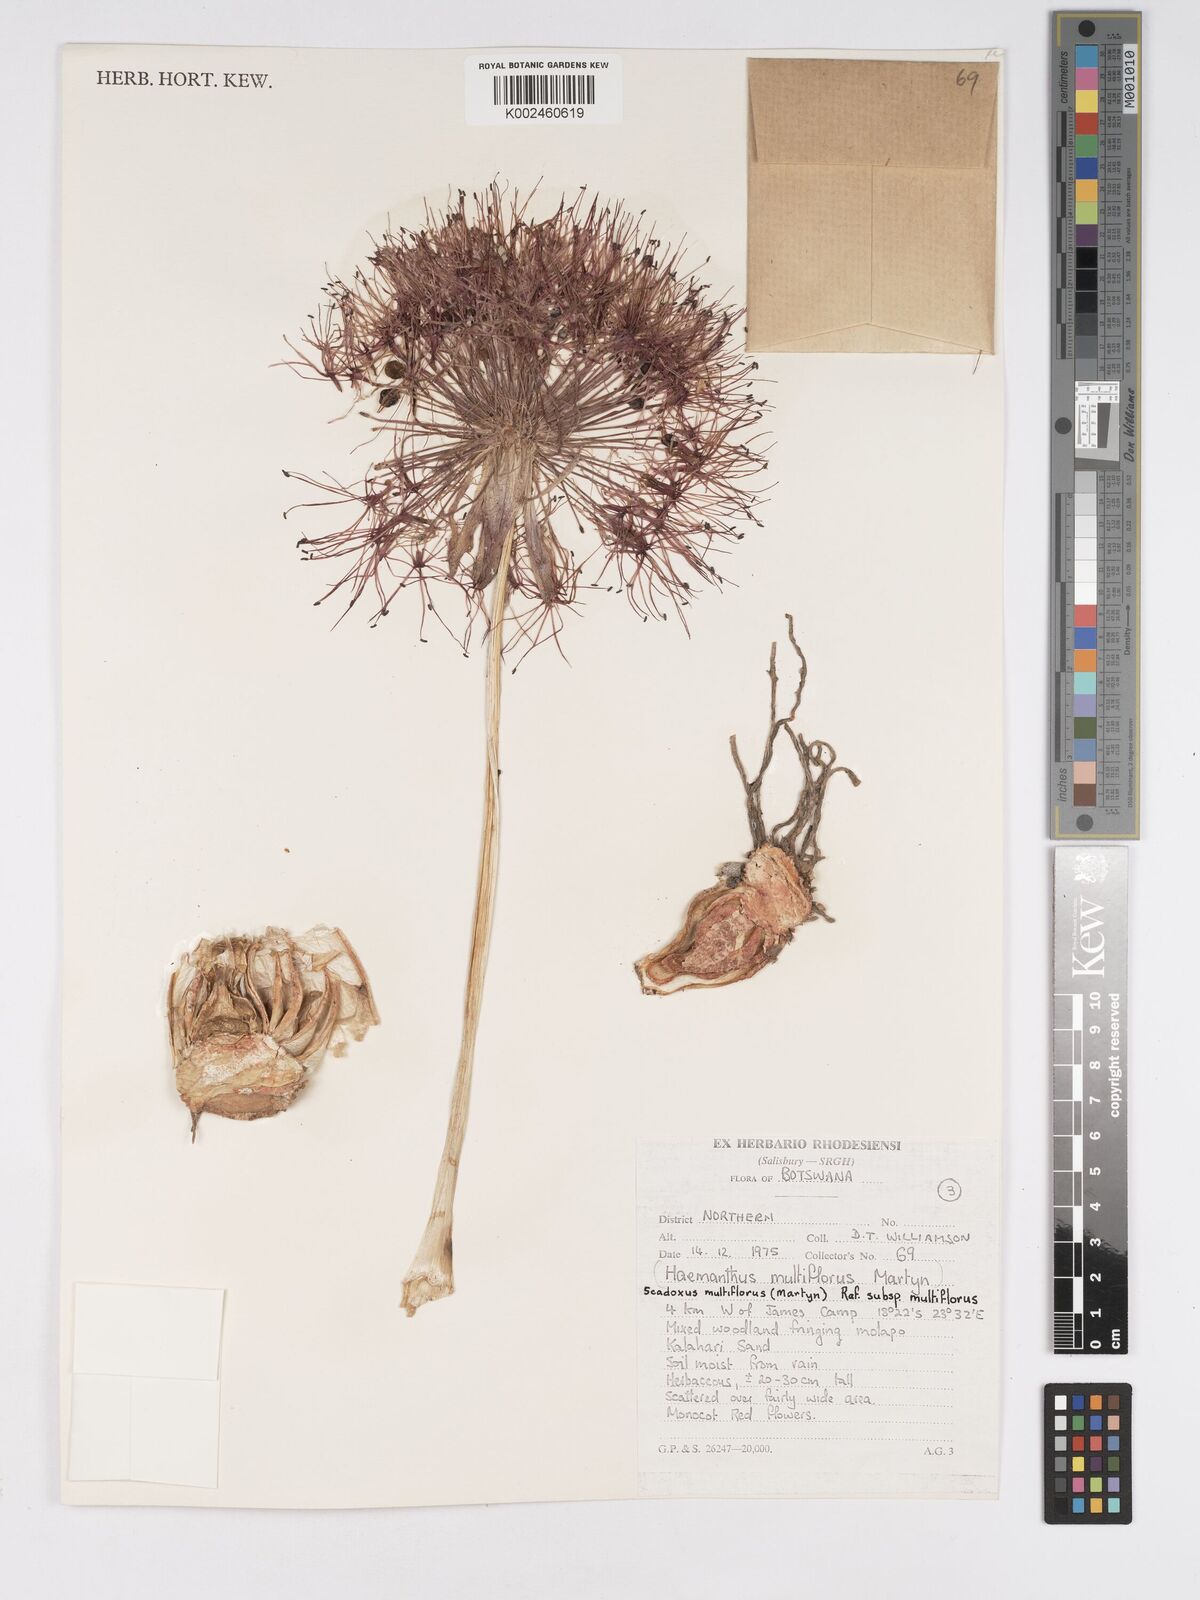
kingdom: Plantae
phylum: Tracheophyta
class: Liliopsida
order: Asparagales
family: Amaryllidaceae
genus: Scadoxus
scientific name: Scadoxus multiflorus
